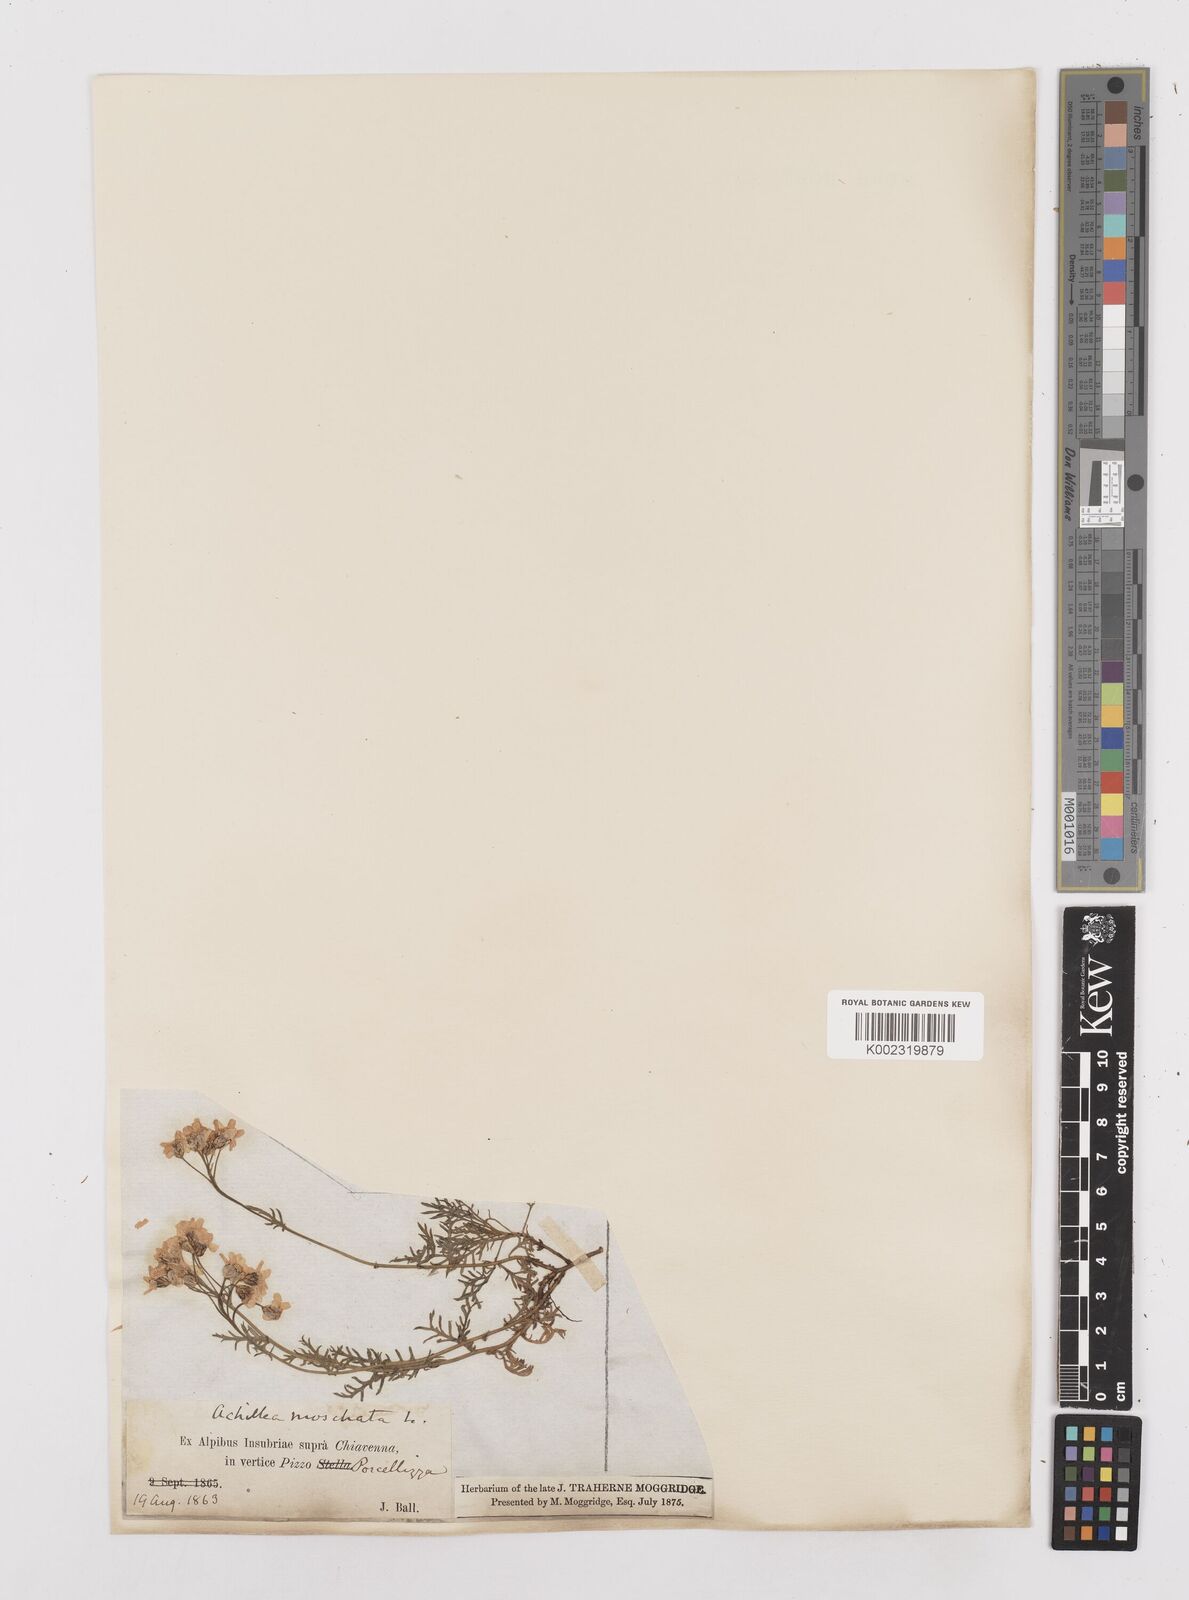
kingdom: Plantae
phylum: Tracheophyta
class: Magnoliopsida
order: Asterales
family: Asteraceae
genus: Achillea
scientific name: Achillea erba-rotta
